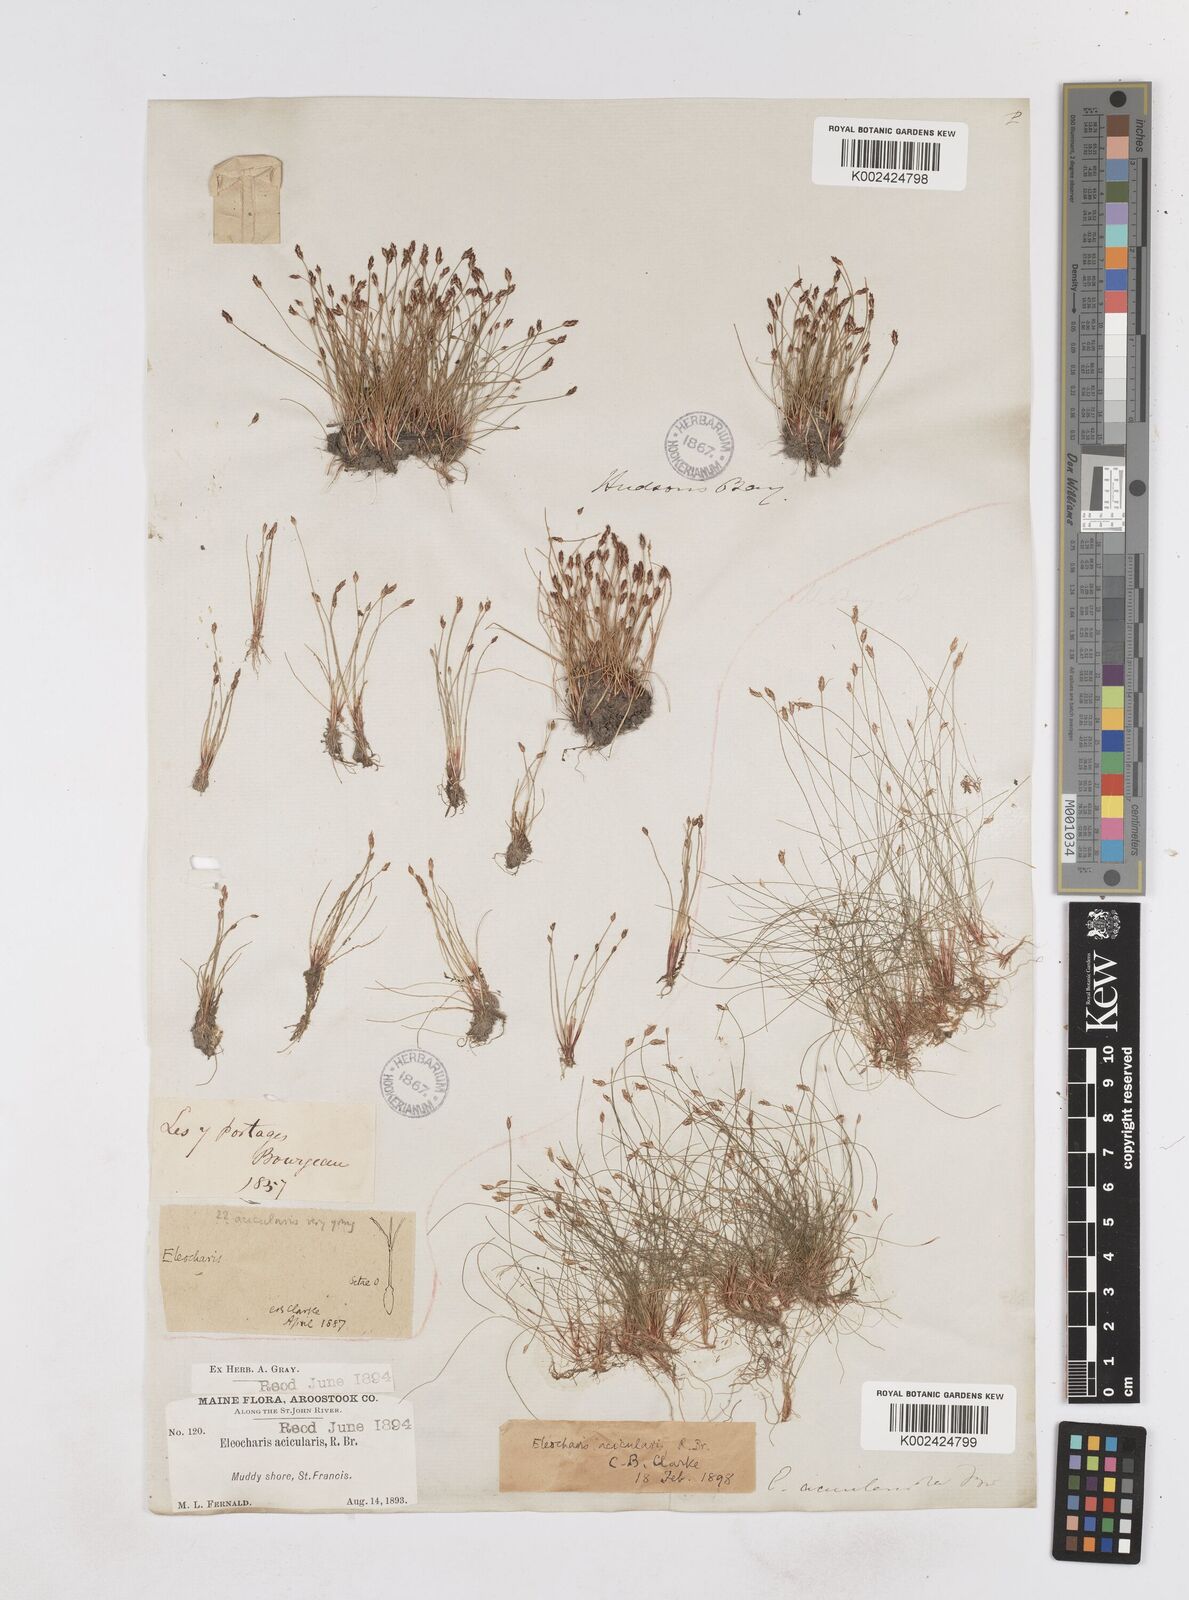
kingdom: Plantae
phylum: Tracheophyta
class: Liliopsida
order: Poales
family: Cyperaceae
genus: Eleocharis
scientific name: Eleocharis acicularis
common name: Needle spike-rush
